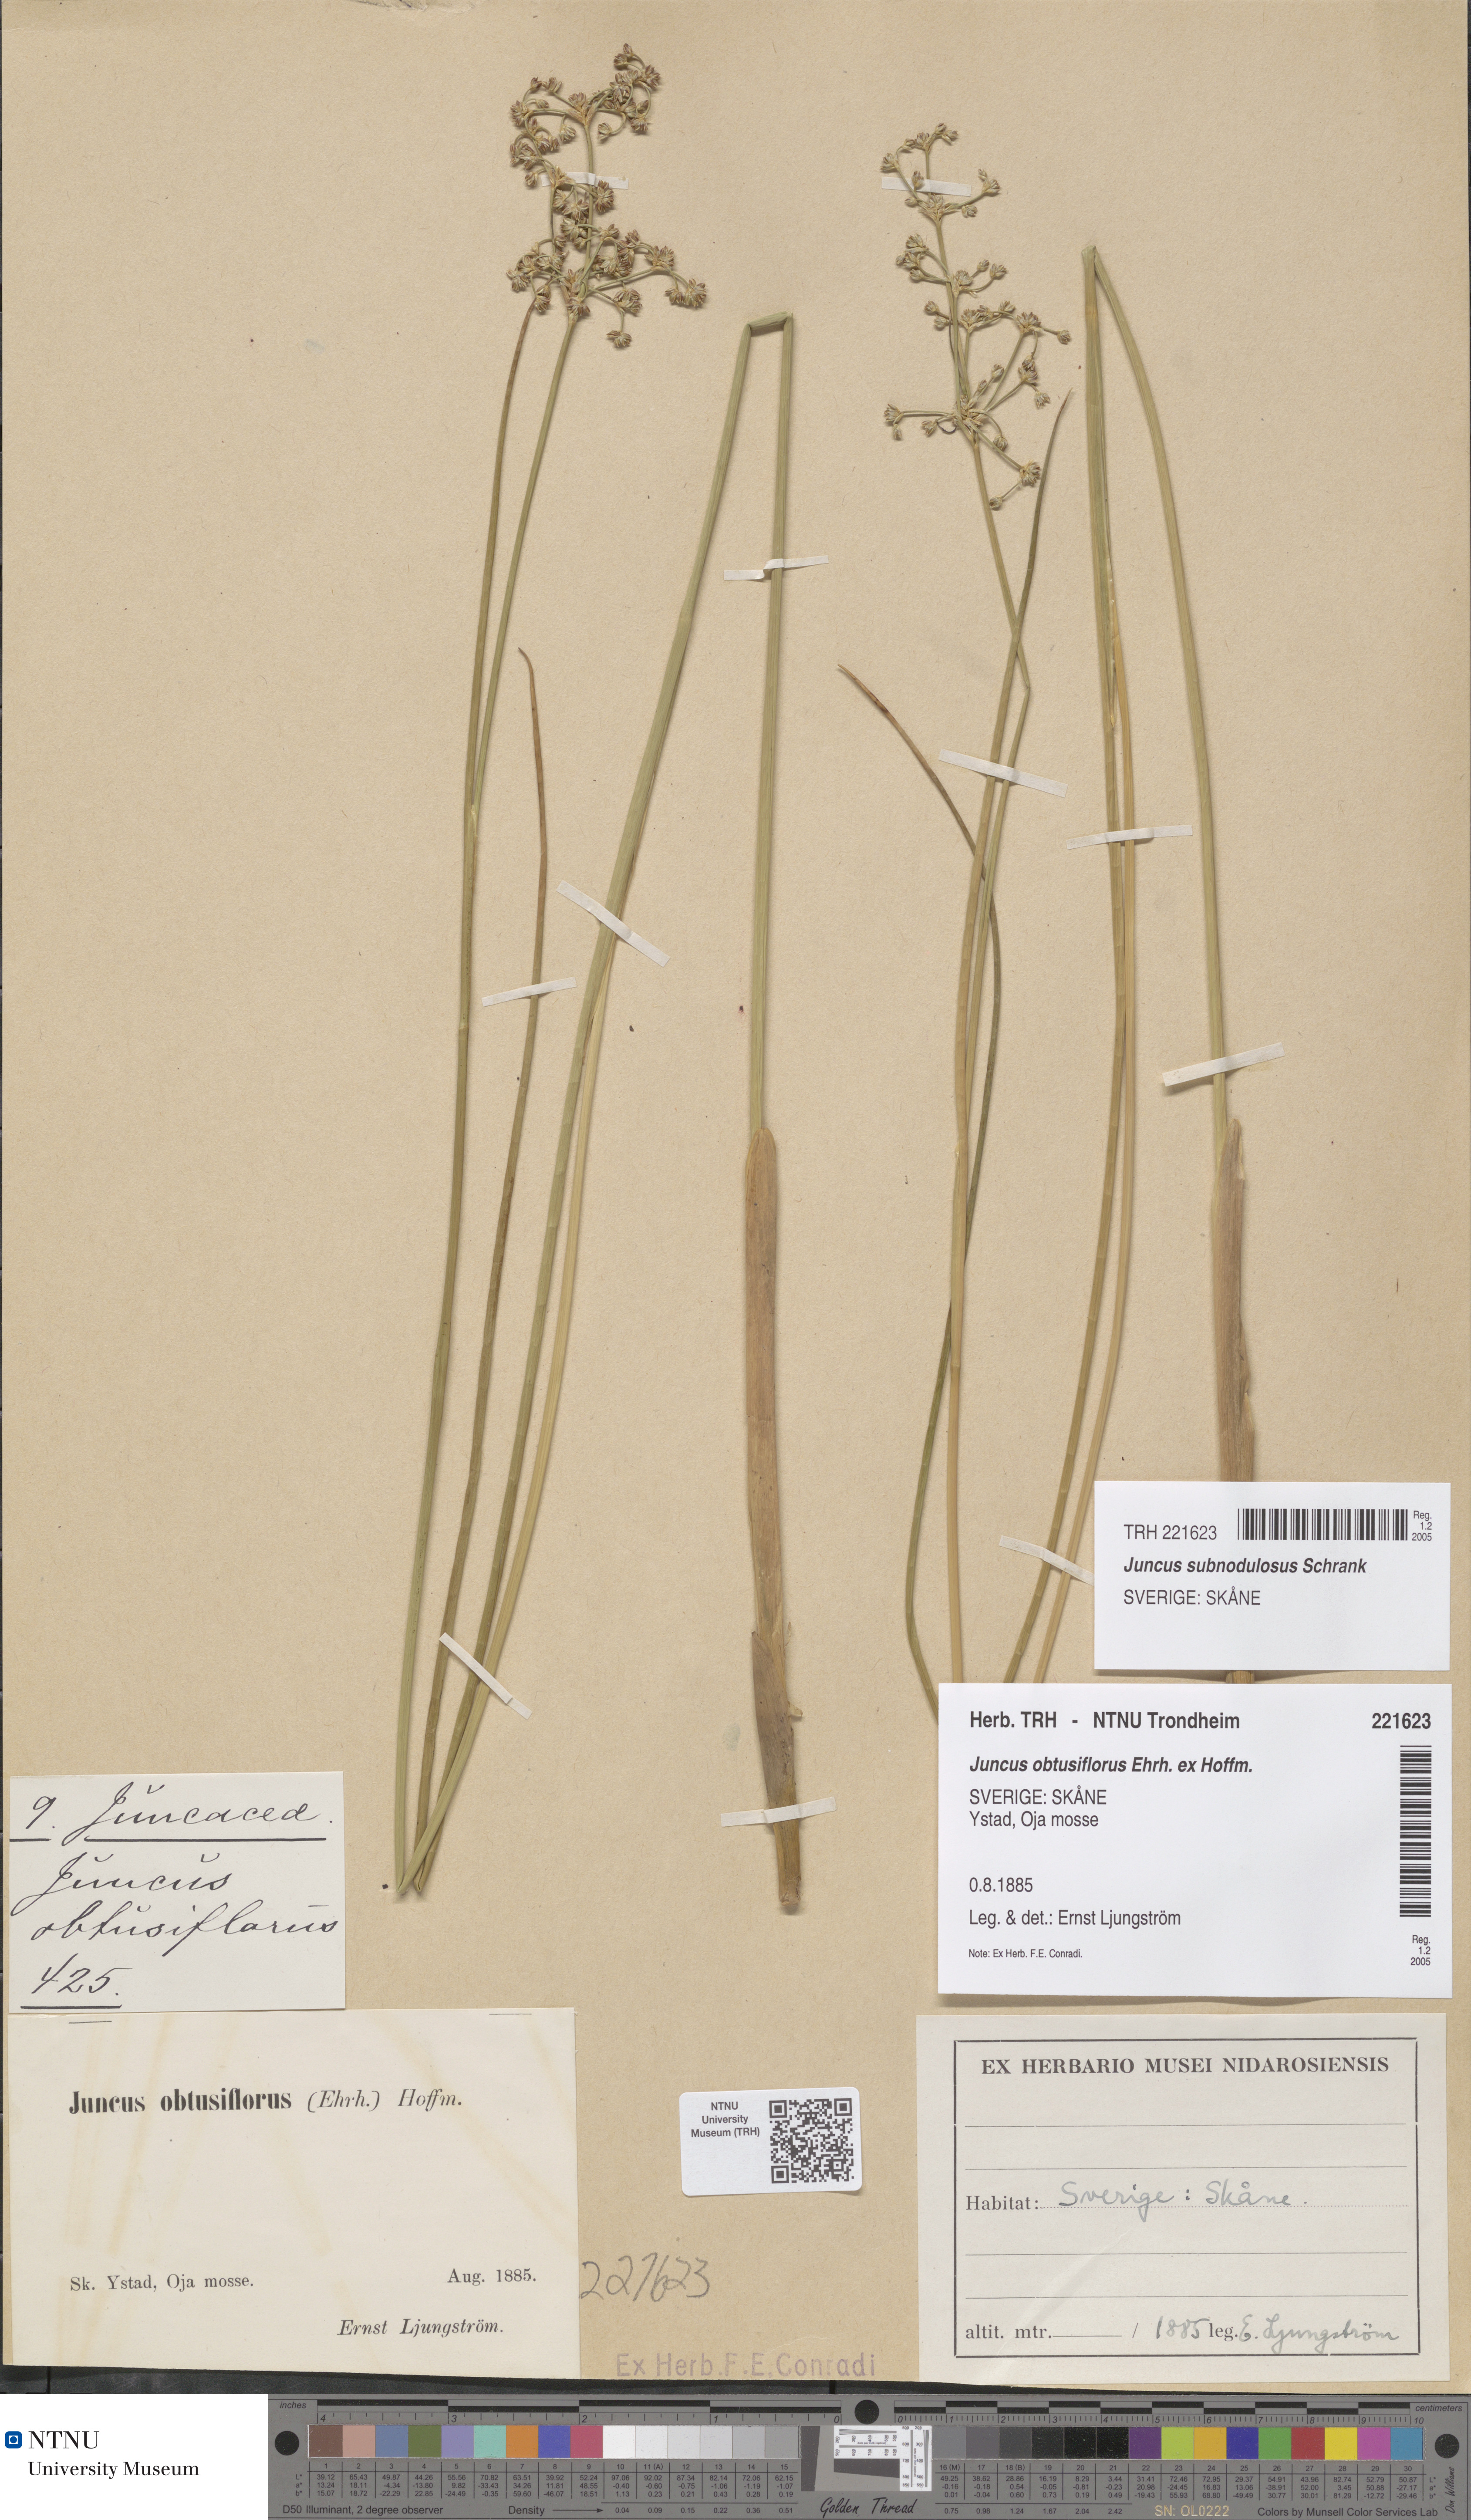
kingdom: Plantae
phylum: Tracheophyta
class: Liliopsida
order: Poales
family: Juncaceae
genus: Juncus
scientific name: Juncus subnodulosus
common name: Blunt-flowered rush
